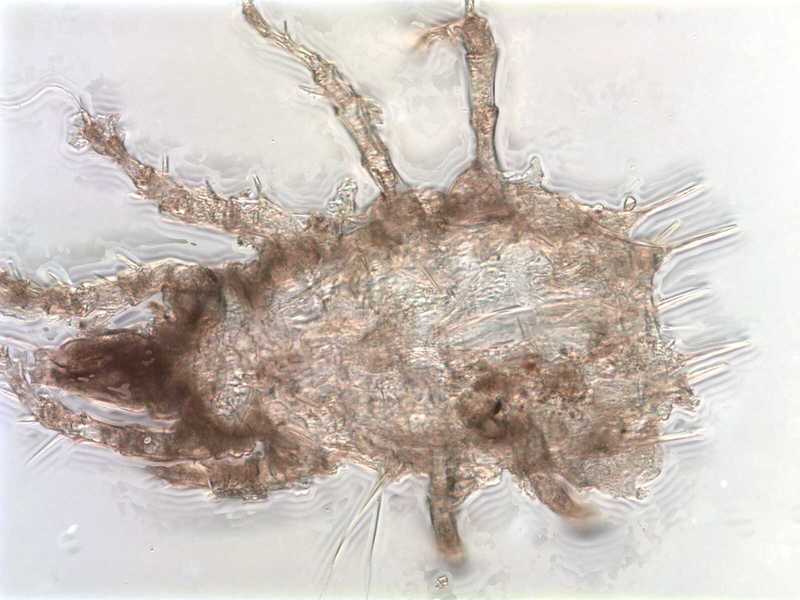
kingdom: Animalia
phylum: Arthropoda
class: Arachnida
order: Sarcoptiformes
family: Histiostomatidae
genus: Prowichmannia
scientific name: Prowichmannia
